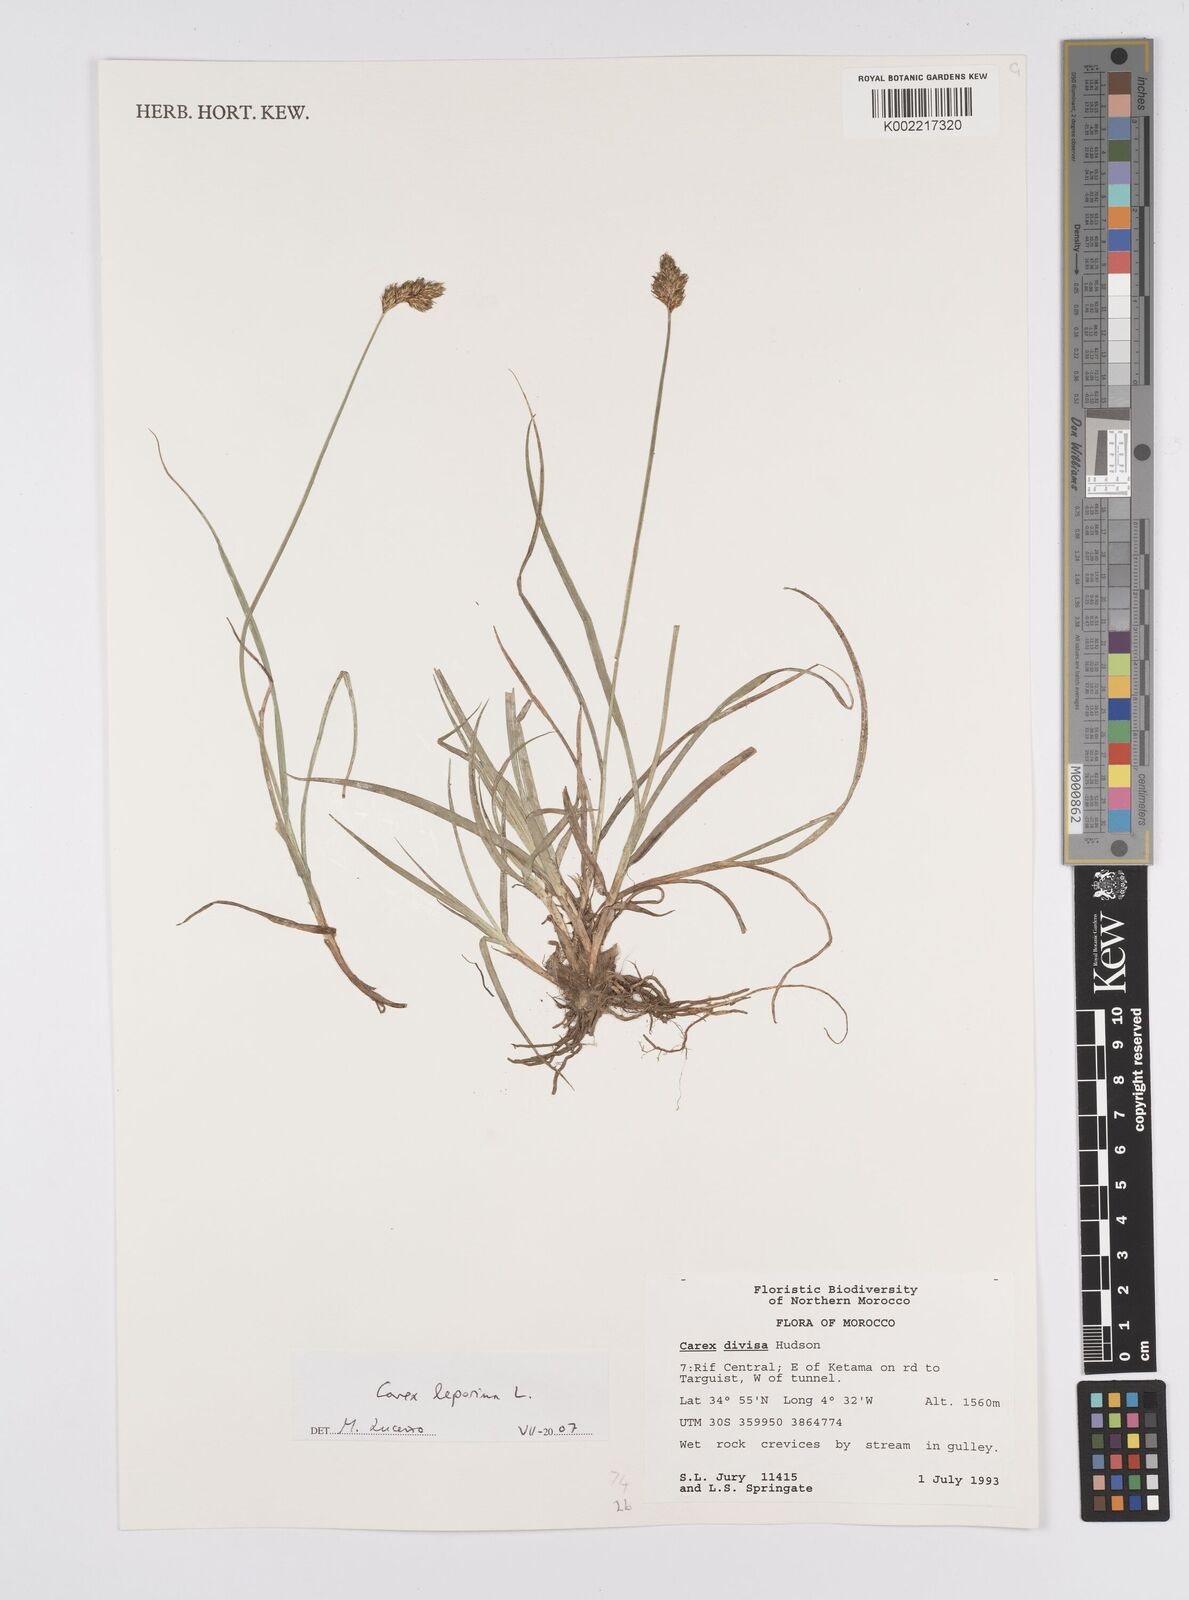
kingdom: Plantae
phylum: Tracheophyta
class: Liliopsida
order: Poales
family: Cyperaceae
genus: Carex
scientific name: Carex leporina
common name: Oval sedge
